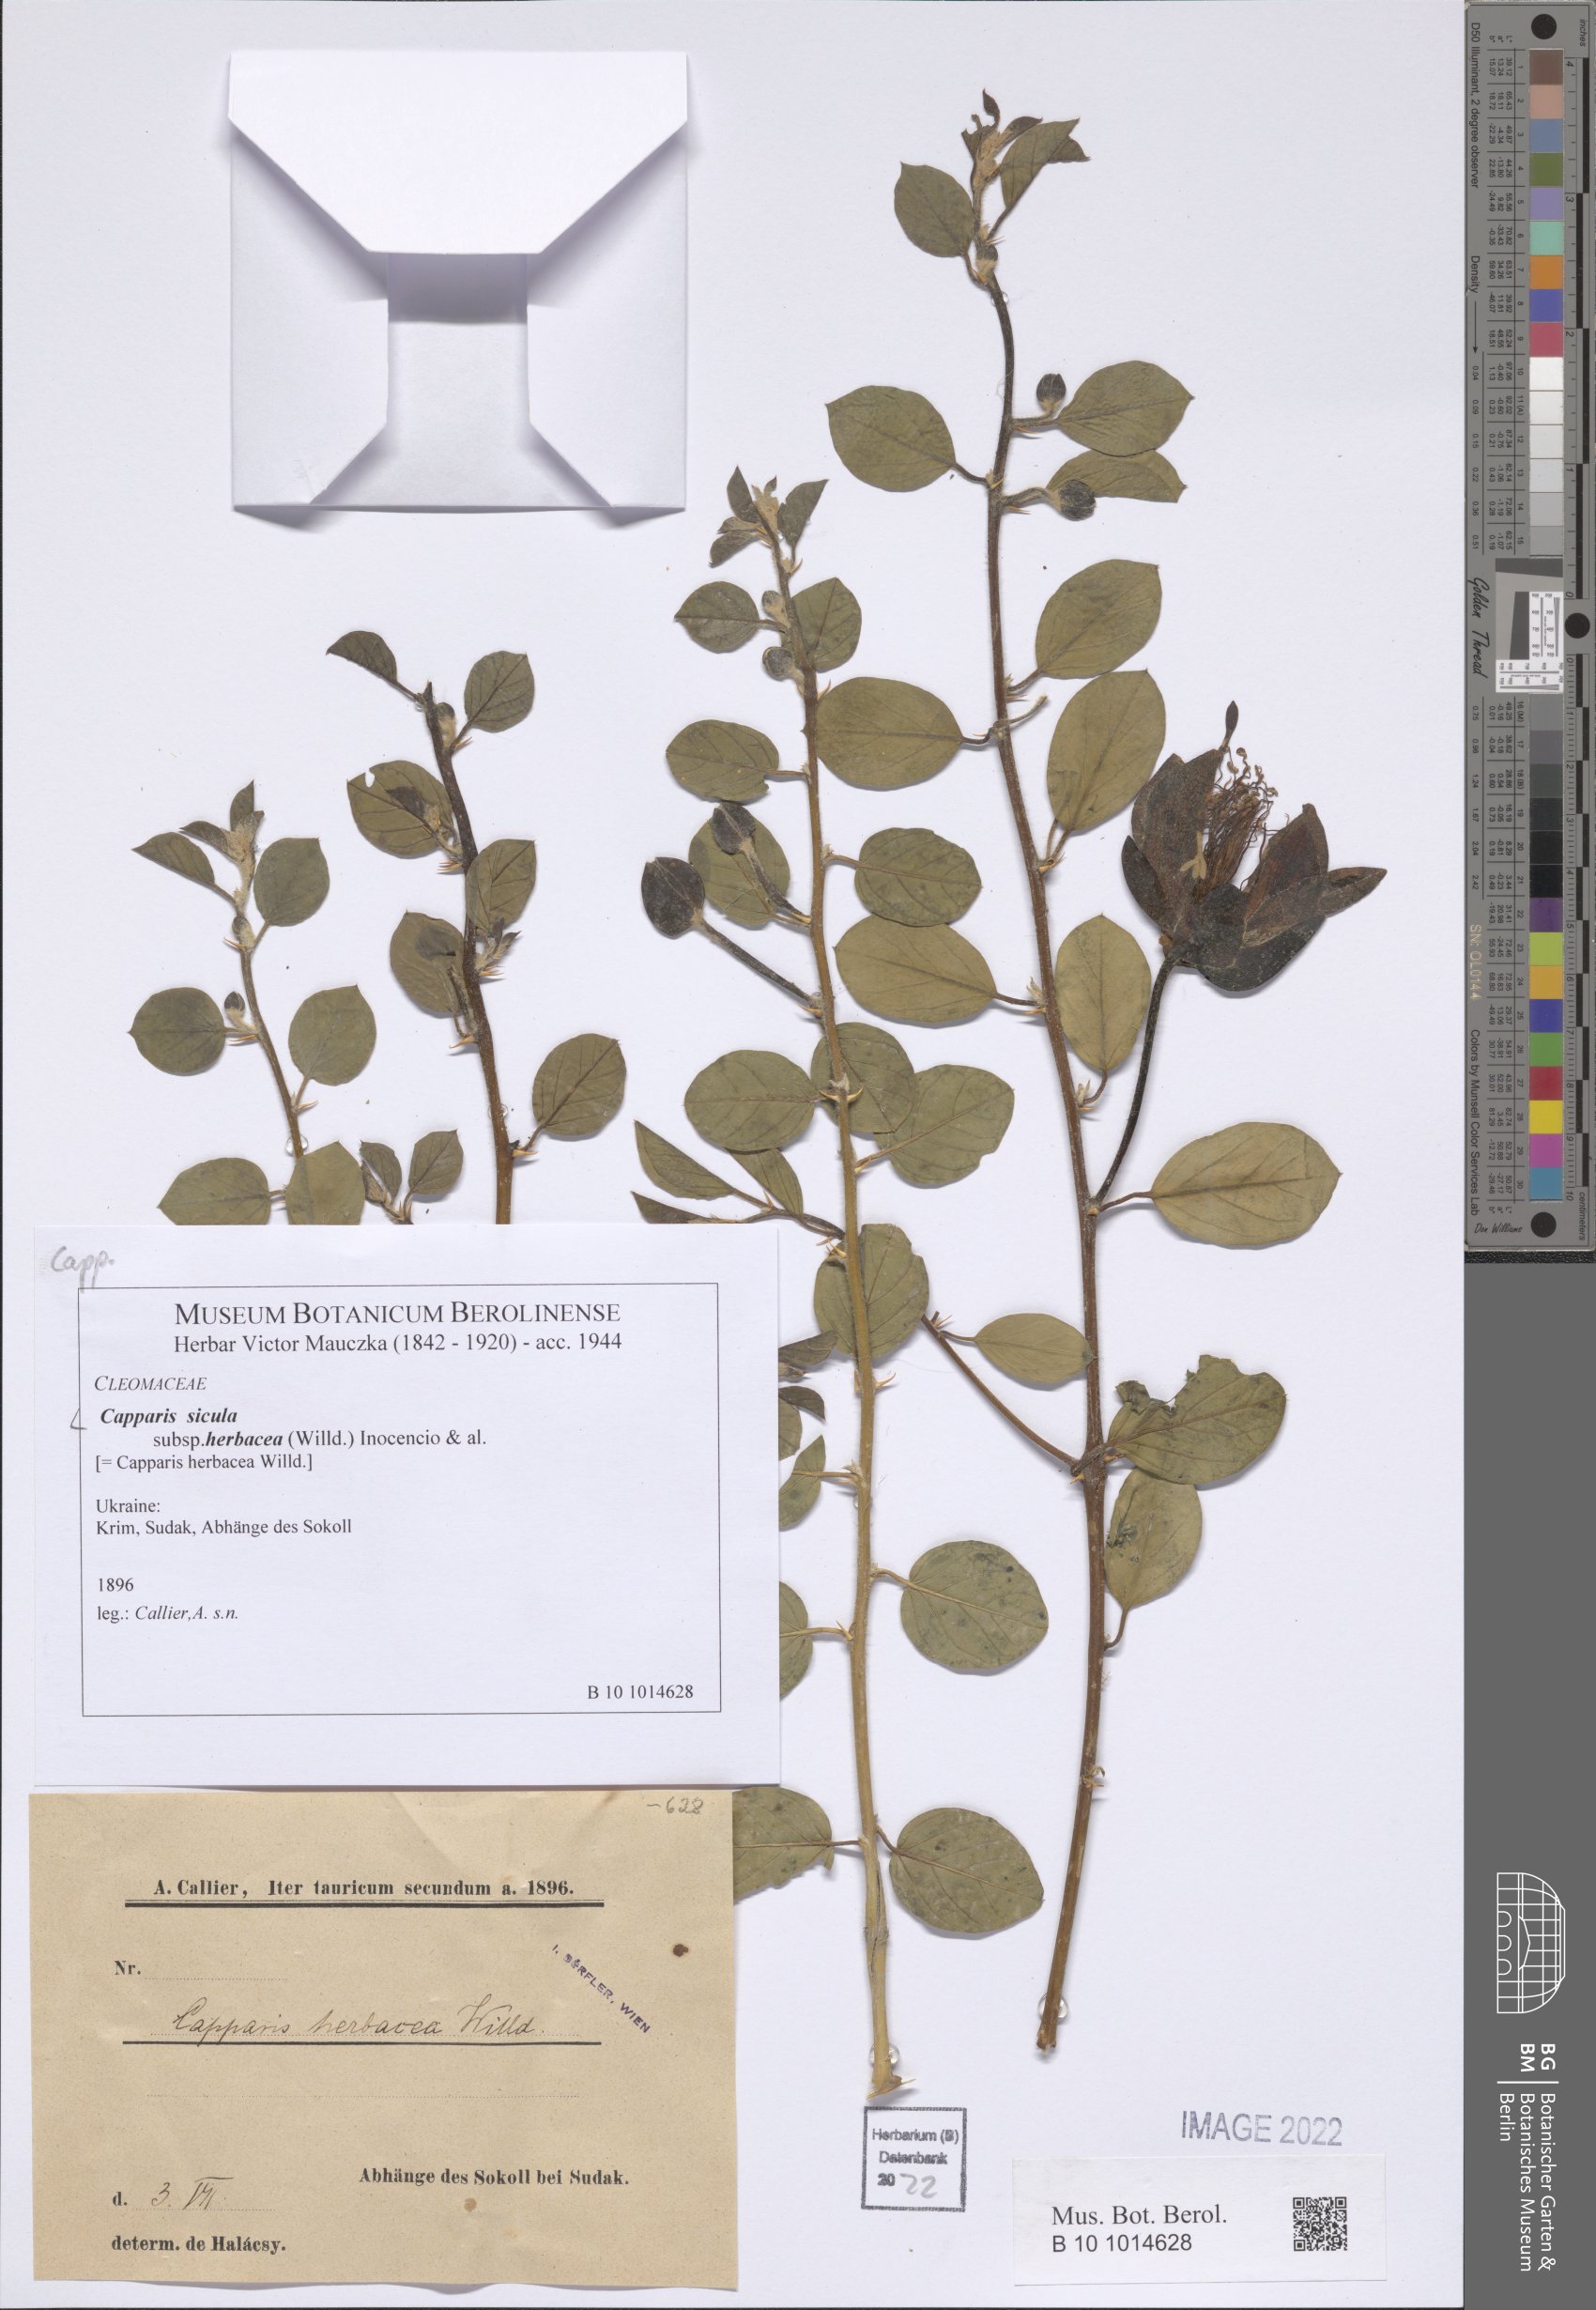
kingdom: Plantae
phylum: Tracheophyta
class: Magnoliopsida
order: Brassicales
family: Capparaceae
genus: Capparis
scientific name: Capparis spinosa
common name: Caper
